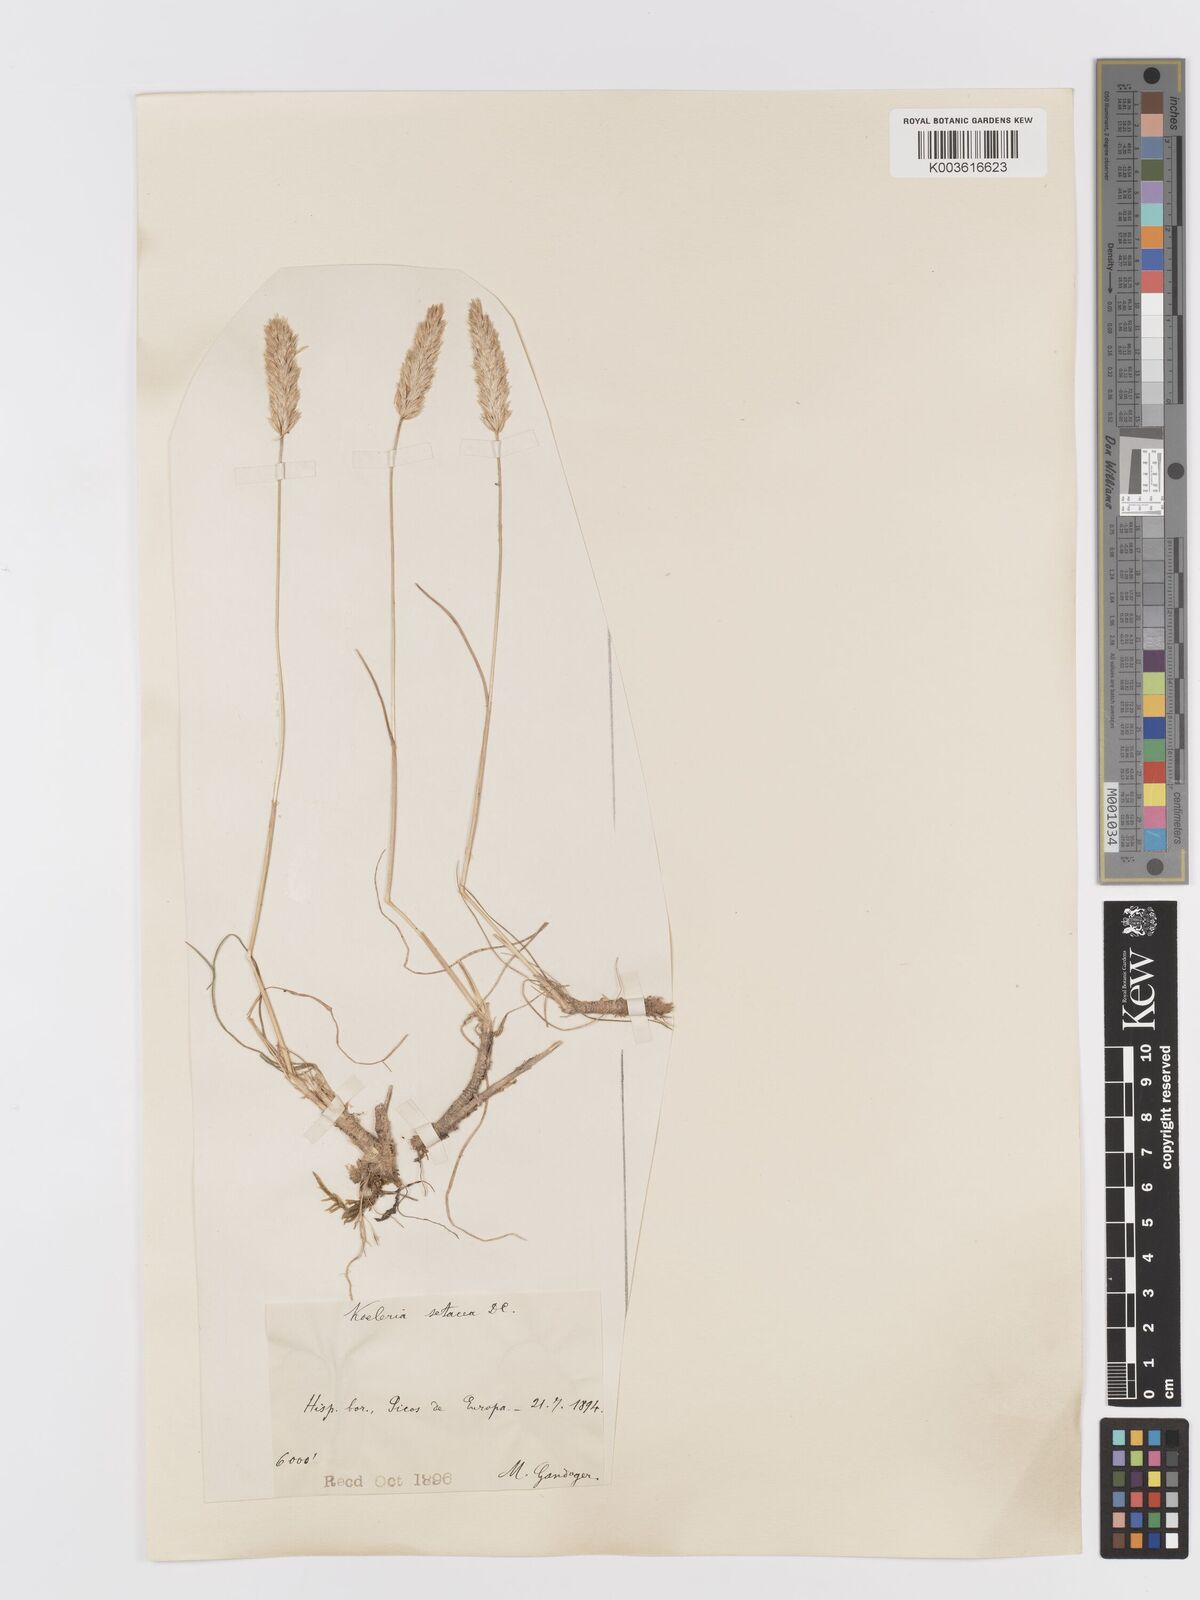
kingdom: Plantae
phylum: Tracheophyta
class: Liliopsida
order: Poales
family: Poaceae
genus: Koeleria
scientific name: Koeleria vallesiana
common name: Somerset hair-grass
